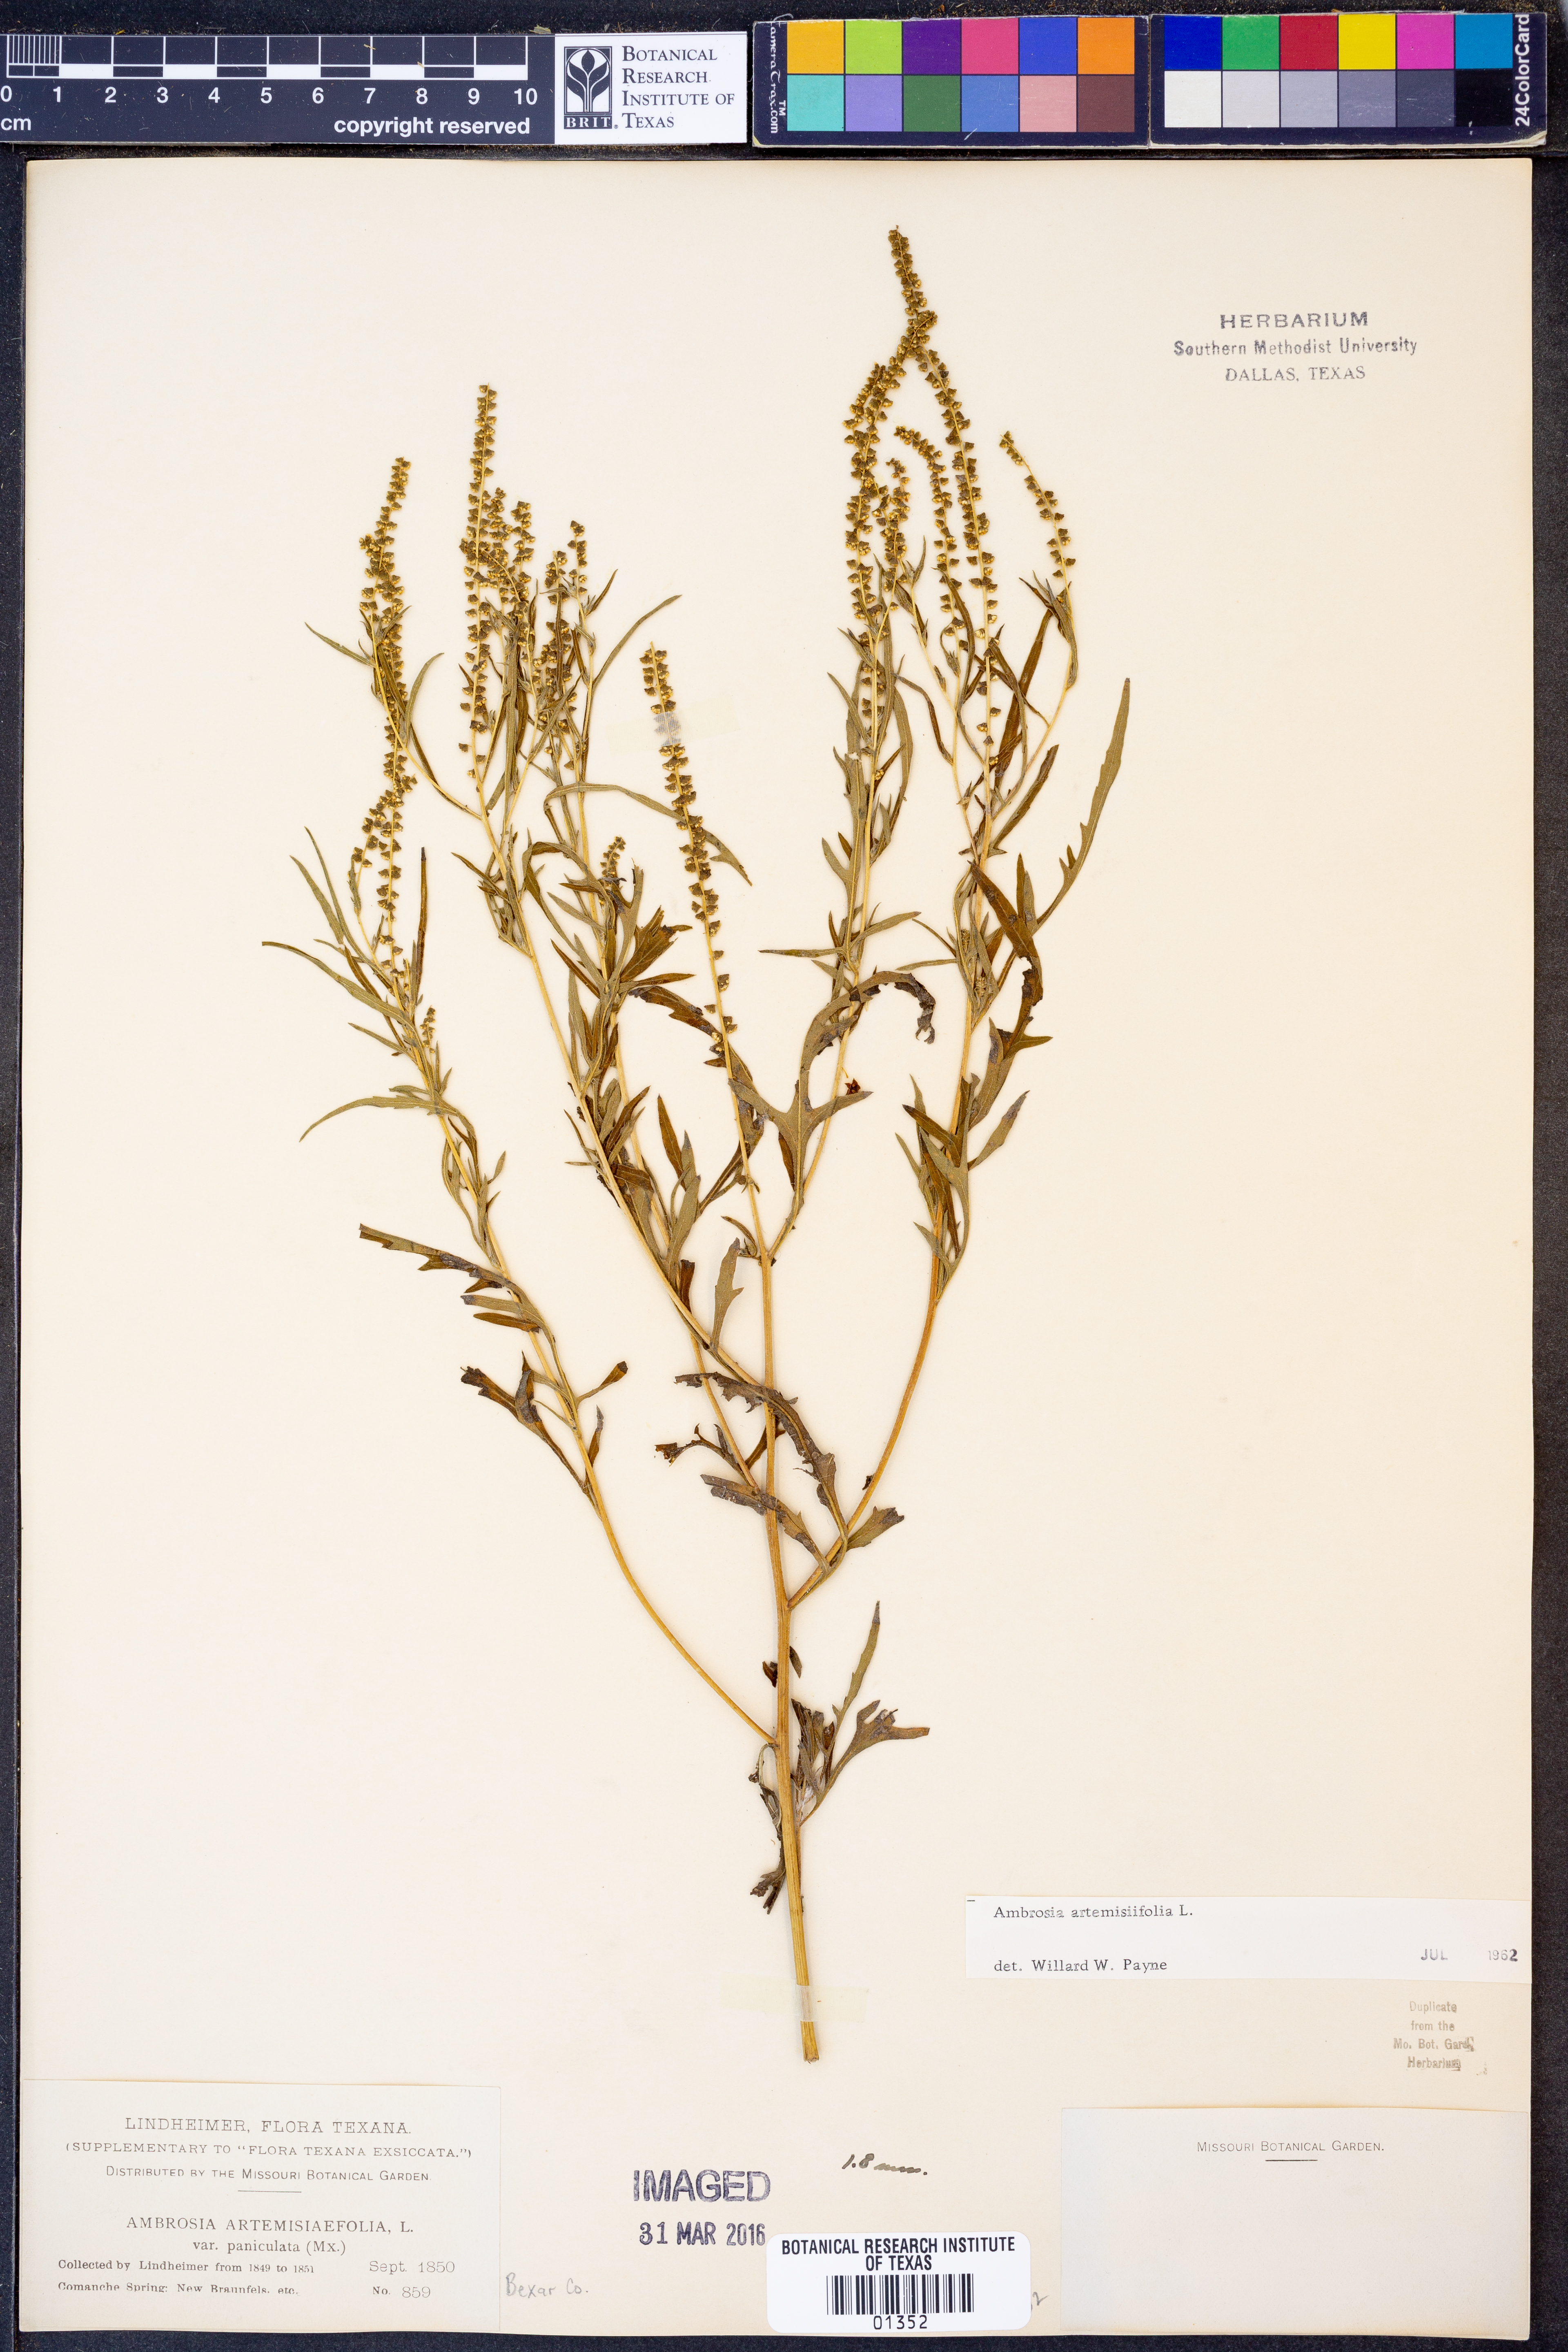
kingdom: Plantae
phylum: Tracheophyta
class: Magnoliopsida
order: Asterales
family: Asteraceae
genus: Ambrosia
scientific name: Ambrosia artemisiifolia
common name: Annual ragweed
